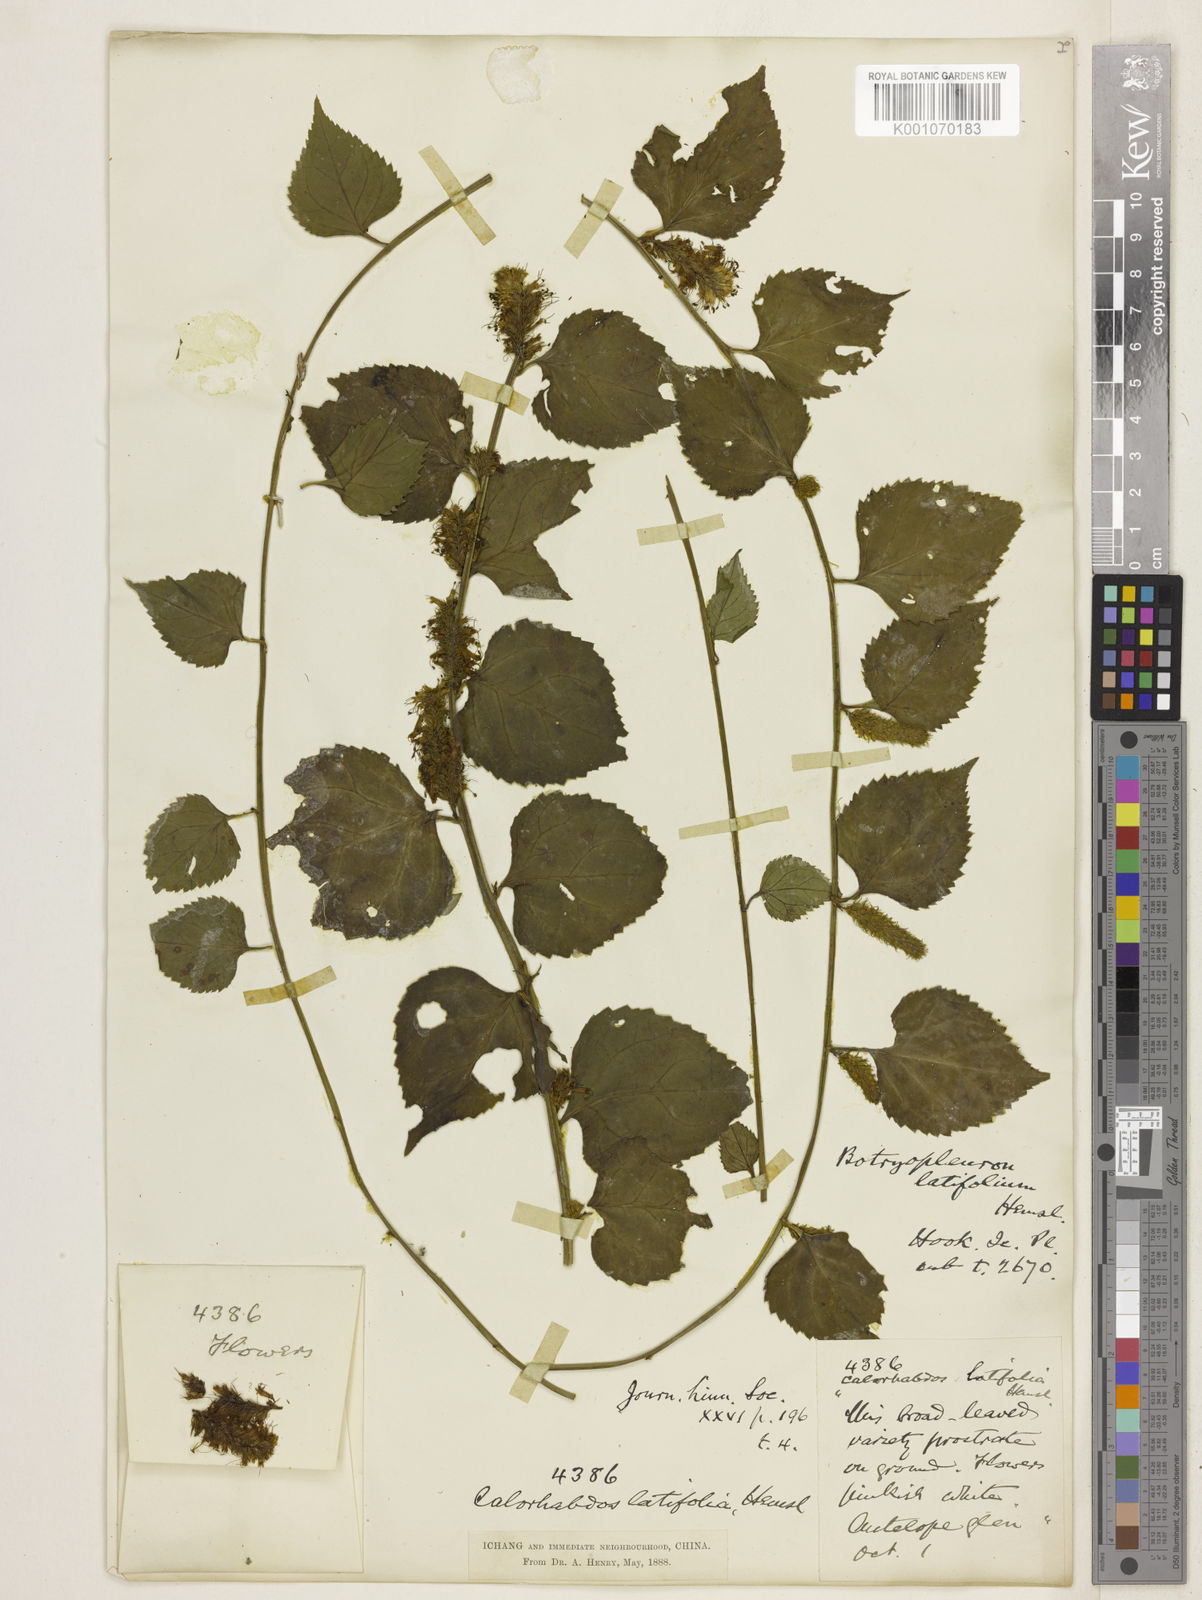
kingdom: Plantae
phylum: Tracheophyta
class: Magnoliopsida
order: Lamiales
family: Plantaginaceae
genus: Veronicastrum
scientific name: Veronicastrum
